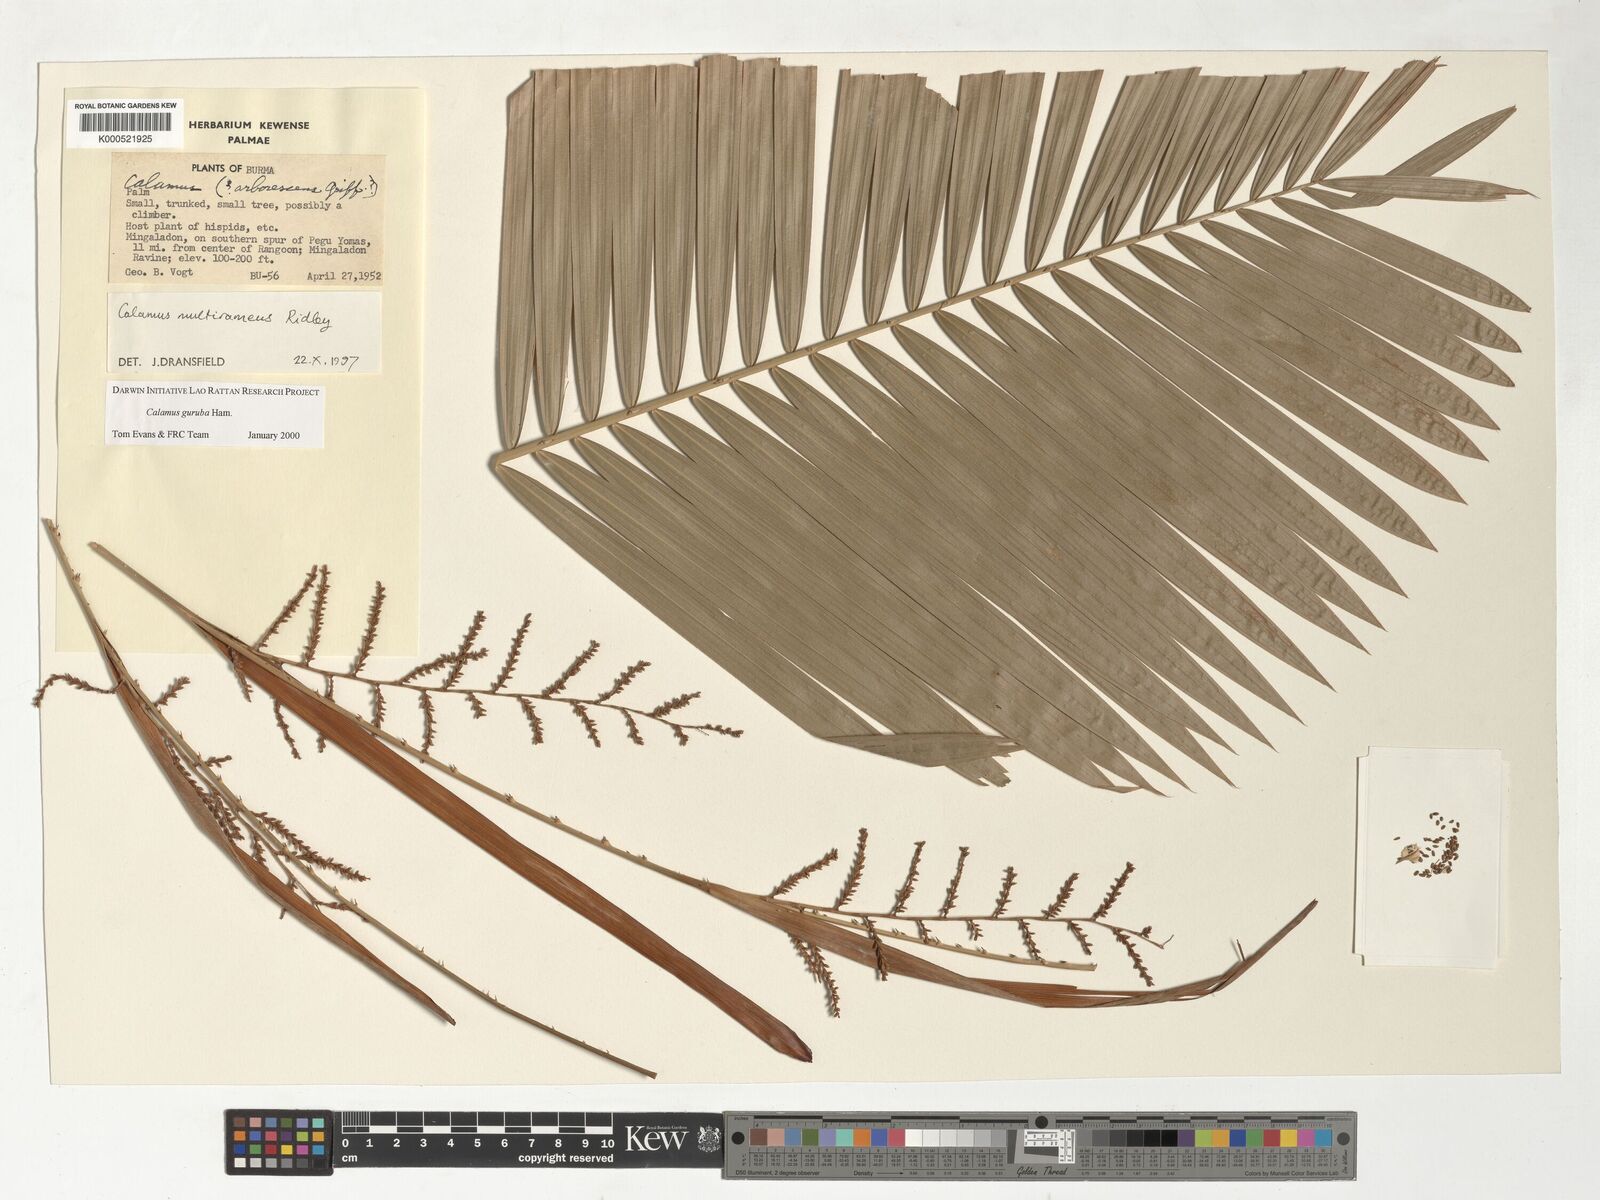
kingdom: Plantae
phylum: Tracheophyta
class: Liliopsida
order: Arecales
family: Arecaceae
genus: Calamus
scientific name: Calamus
